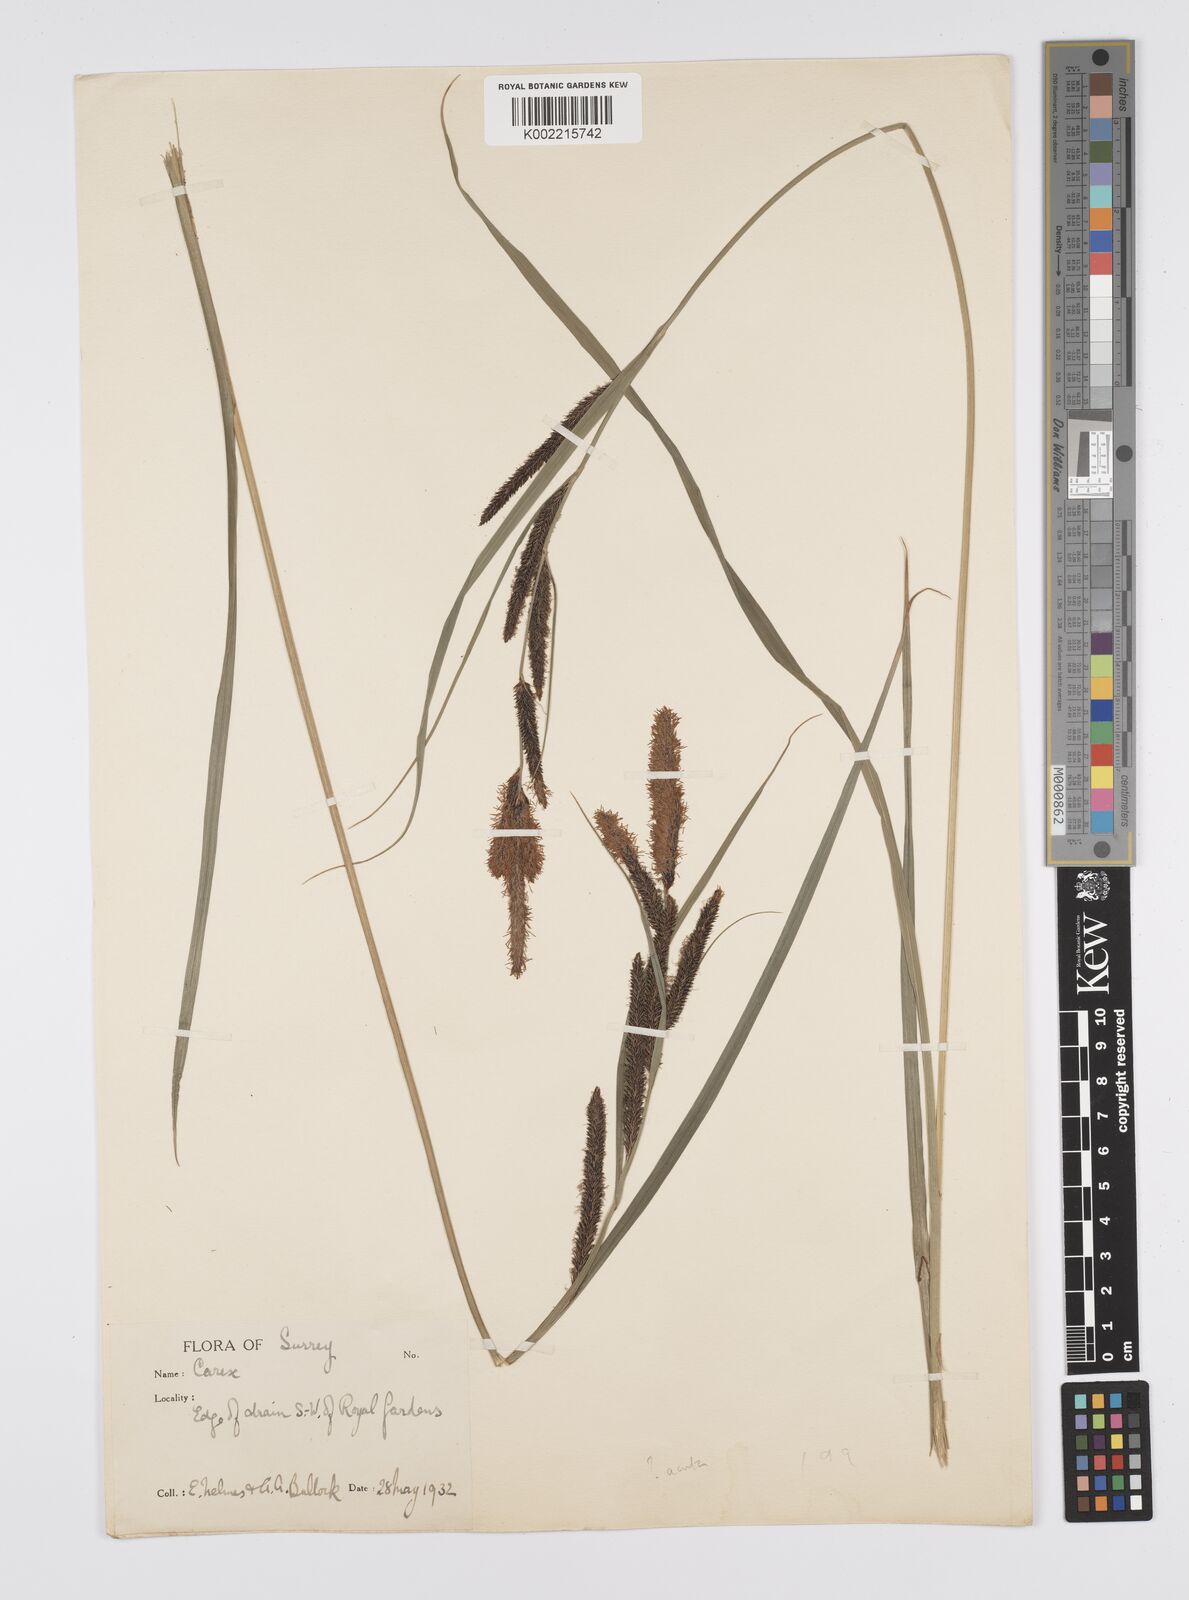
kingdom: Plantae
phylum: Tracheophyta
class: Liliopsida
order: Poales
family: Cyperaceae
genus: Carex
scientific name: Carex
